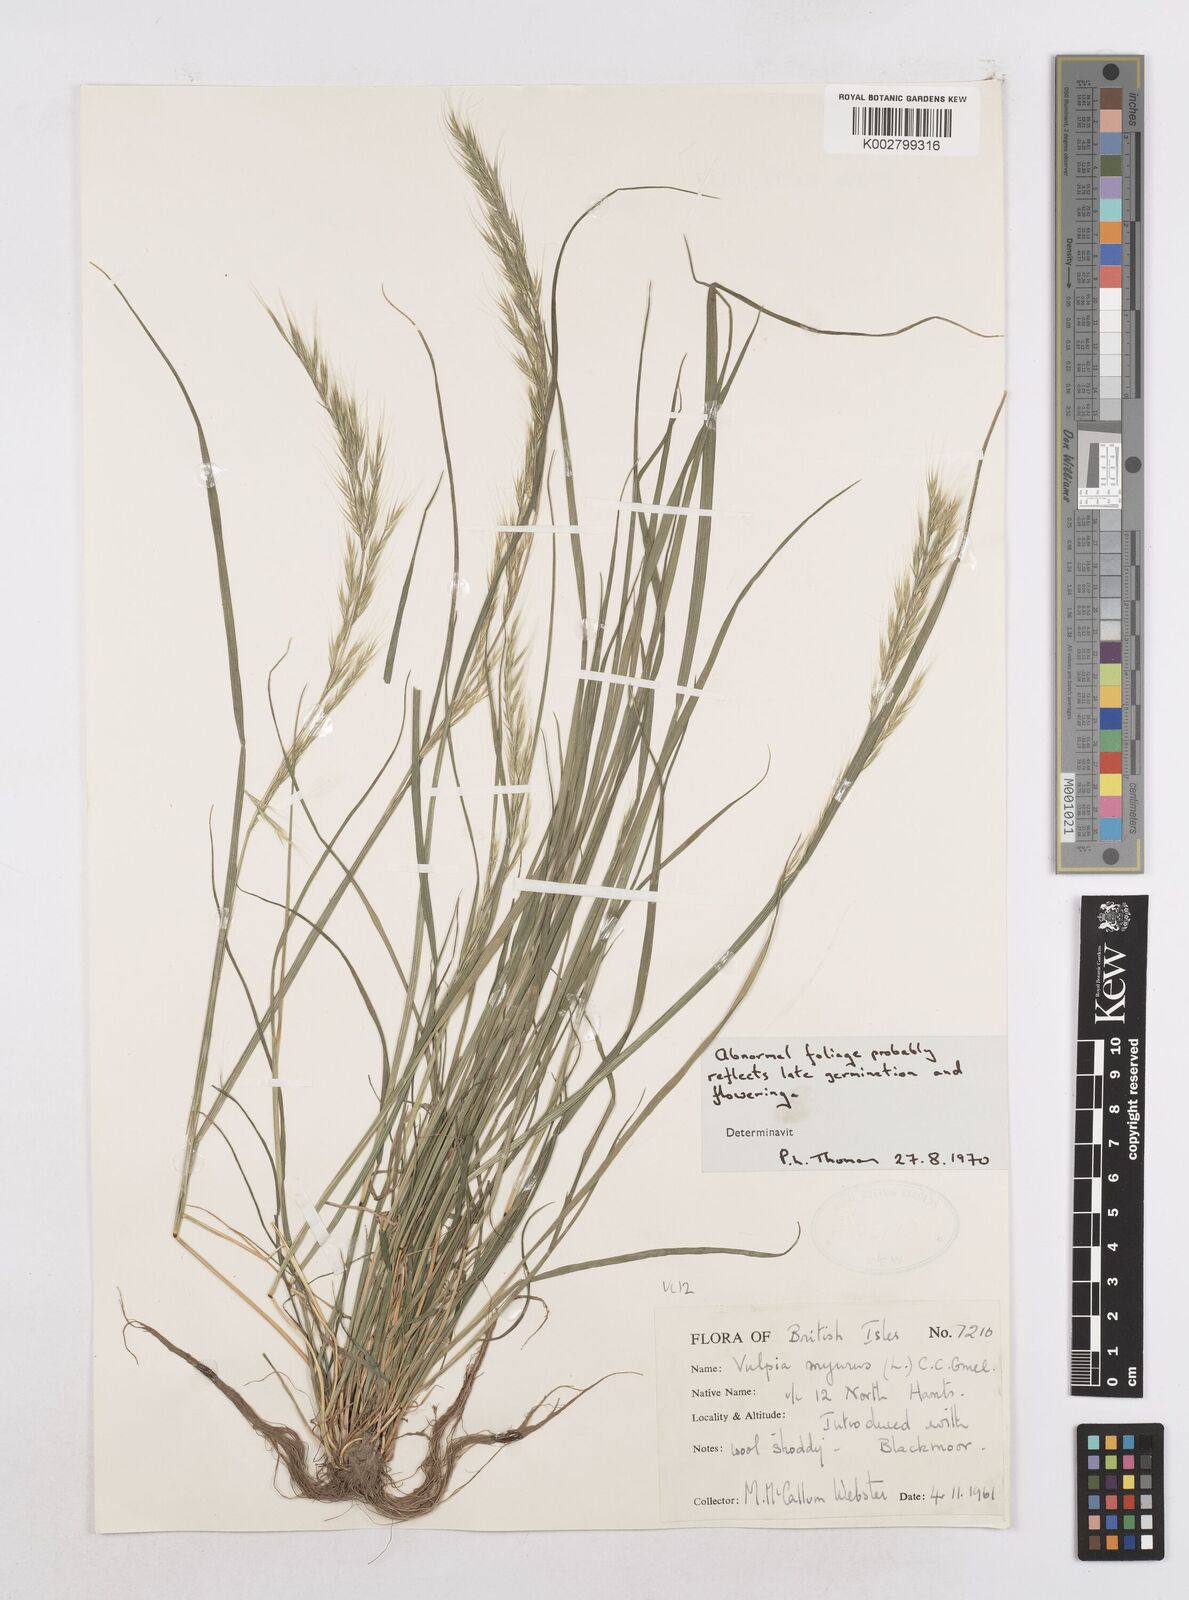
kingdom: Plantae
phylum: Tracheophyta
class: Liliopsida
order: Poales
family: Poaceae
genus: Festuca
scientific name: Festuca myuros
